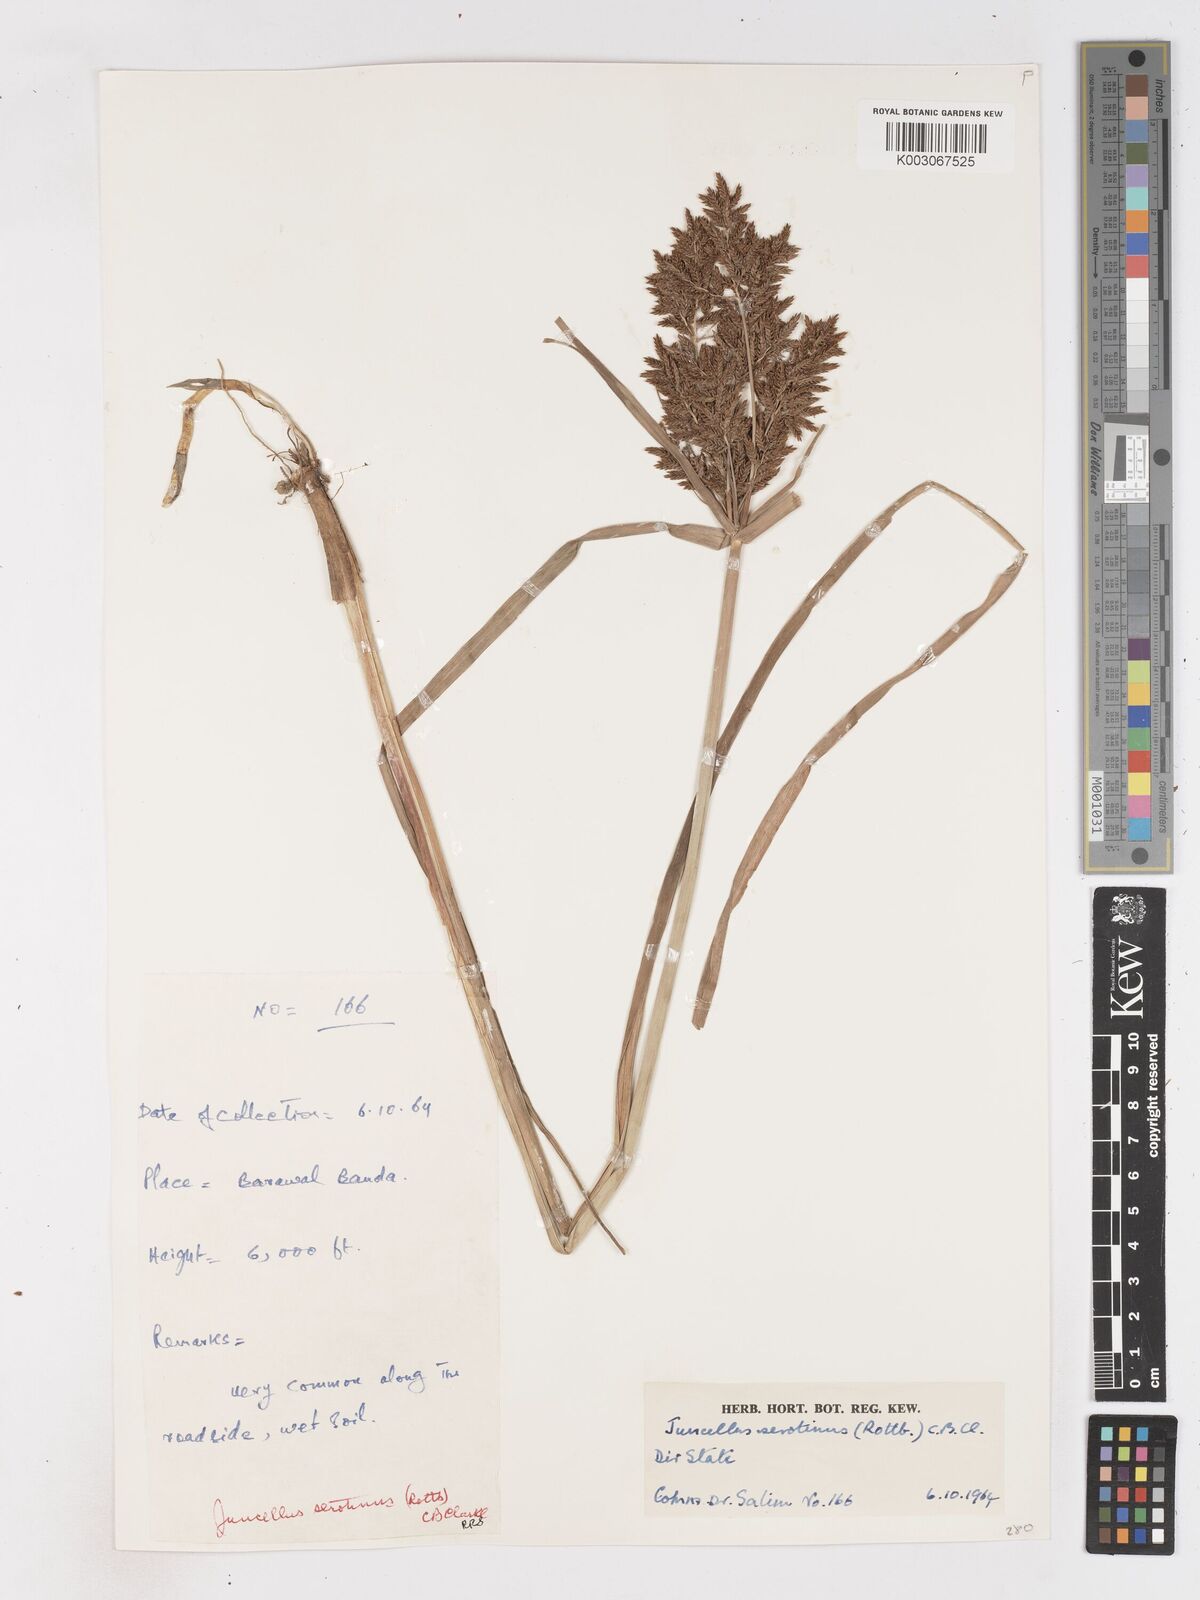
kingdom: Plantae
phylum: Tracheophyta
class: Liliopsida
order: Poales
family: Cyperaceae
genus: Cyperus
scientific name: Cyperus serotinus
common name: Tidalmarsh flatsedge
